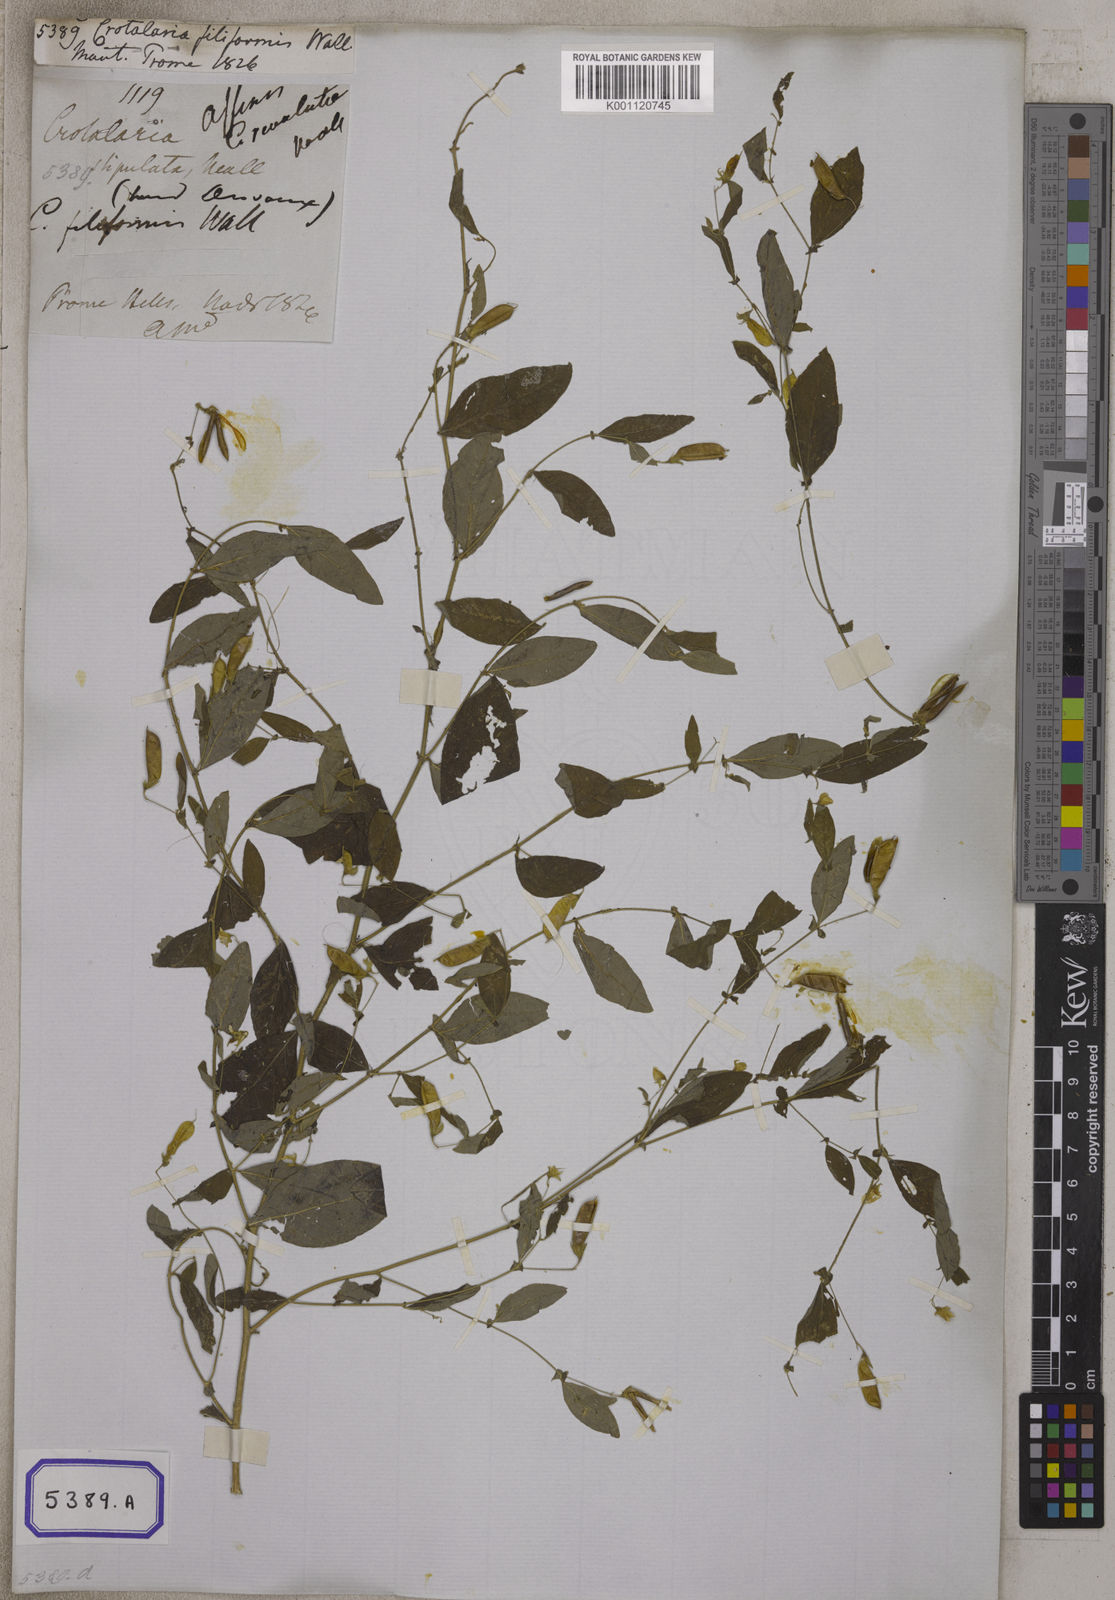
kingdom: Plantae
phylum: Tracheophyta
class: Magnoliopsida
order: Fabales
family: Fabaceae
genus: Crotalaria
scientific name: Crotalaria
